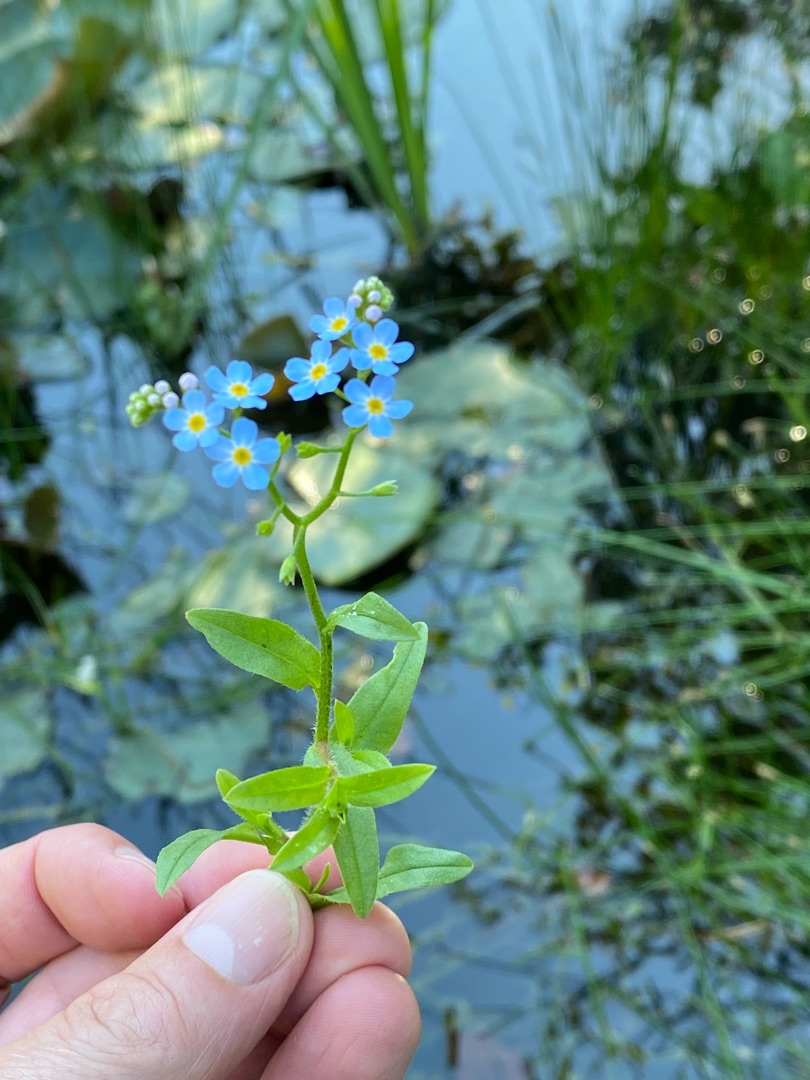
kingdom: Plantae
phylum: Tracheophyta
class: Magnoliopsida
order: Boraginales
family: Boraginaceae
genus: Myosotis
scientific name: Myosotis scorpioides
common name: Eng-forglemmigej
